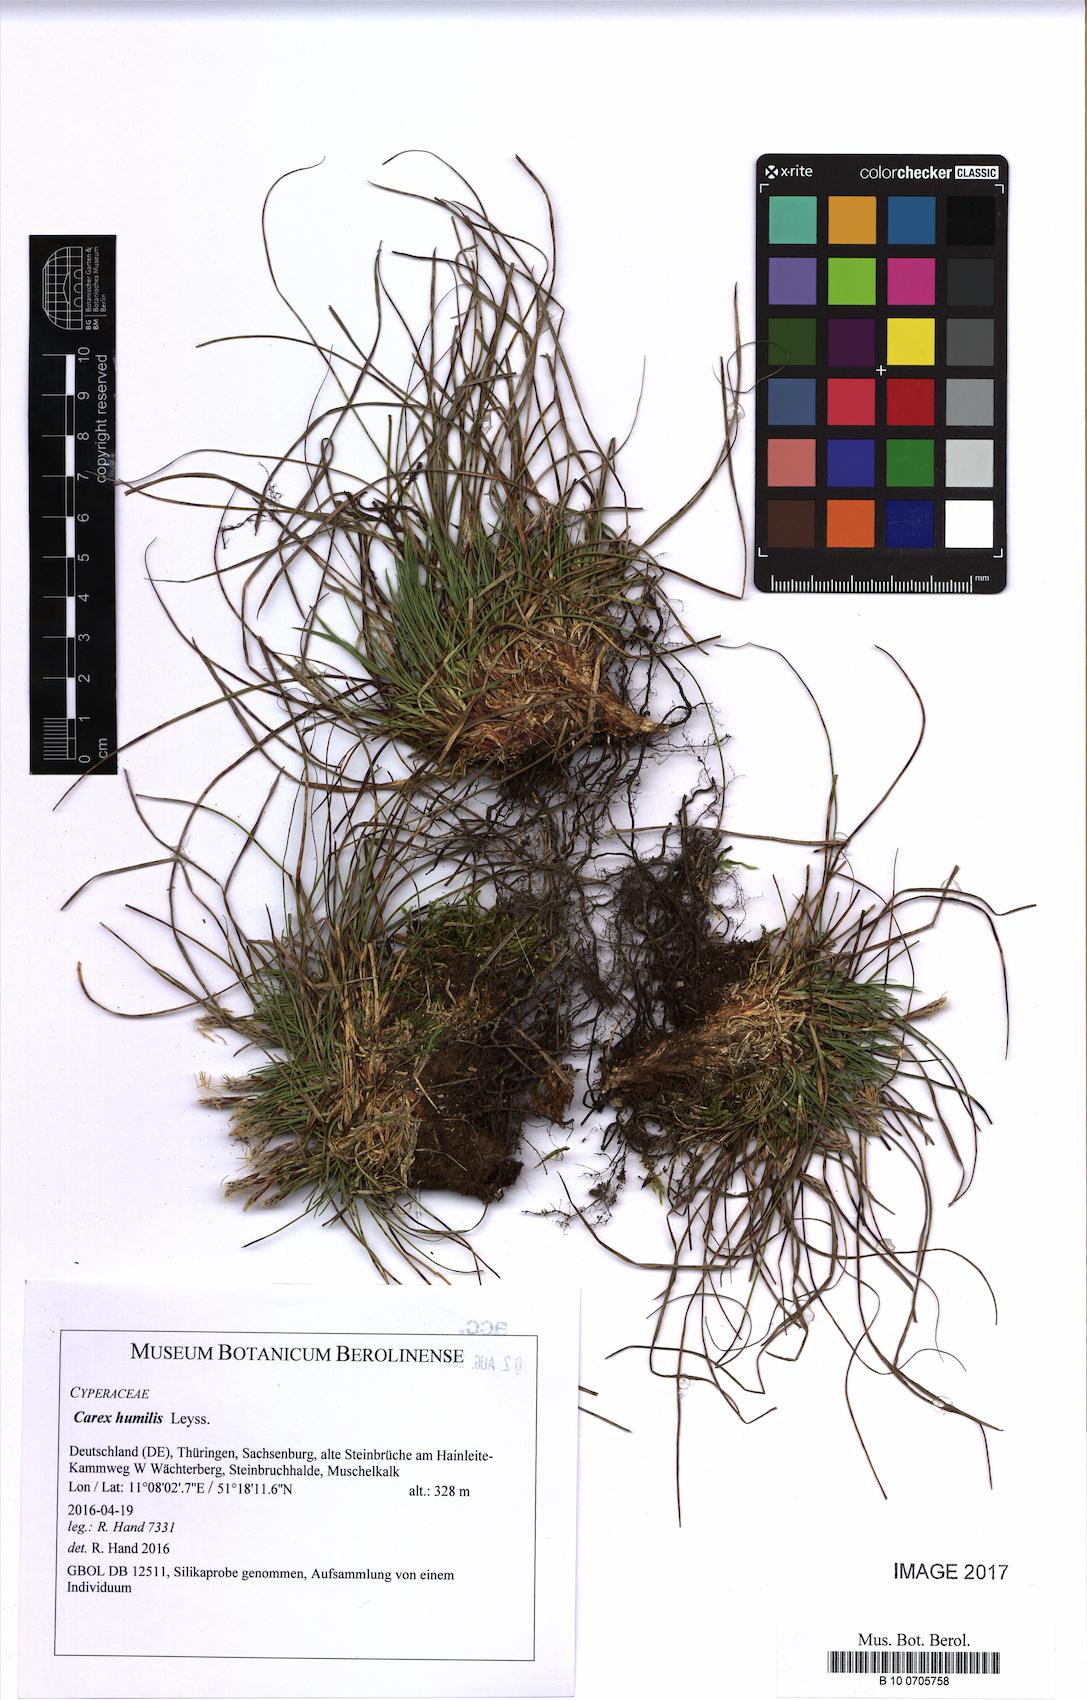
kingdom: Plantae
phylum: Tracheophyta
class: Liliopsida
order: Poales
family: Cyperaceae
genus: Carex
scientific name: Carex humilis
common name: Dwarf sedge
